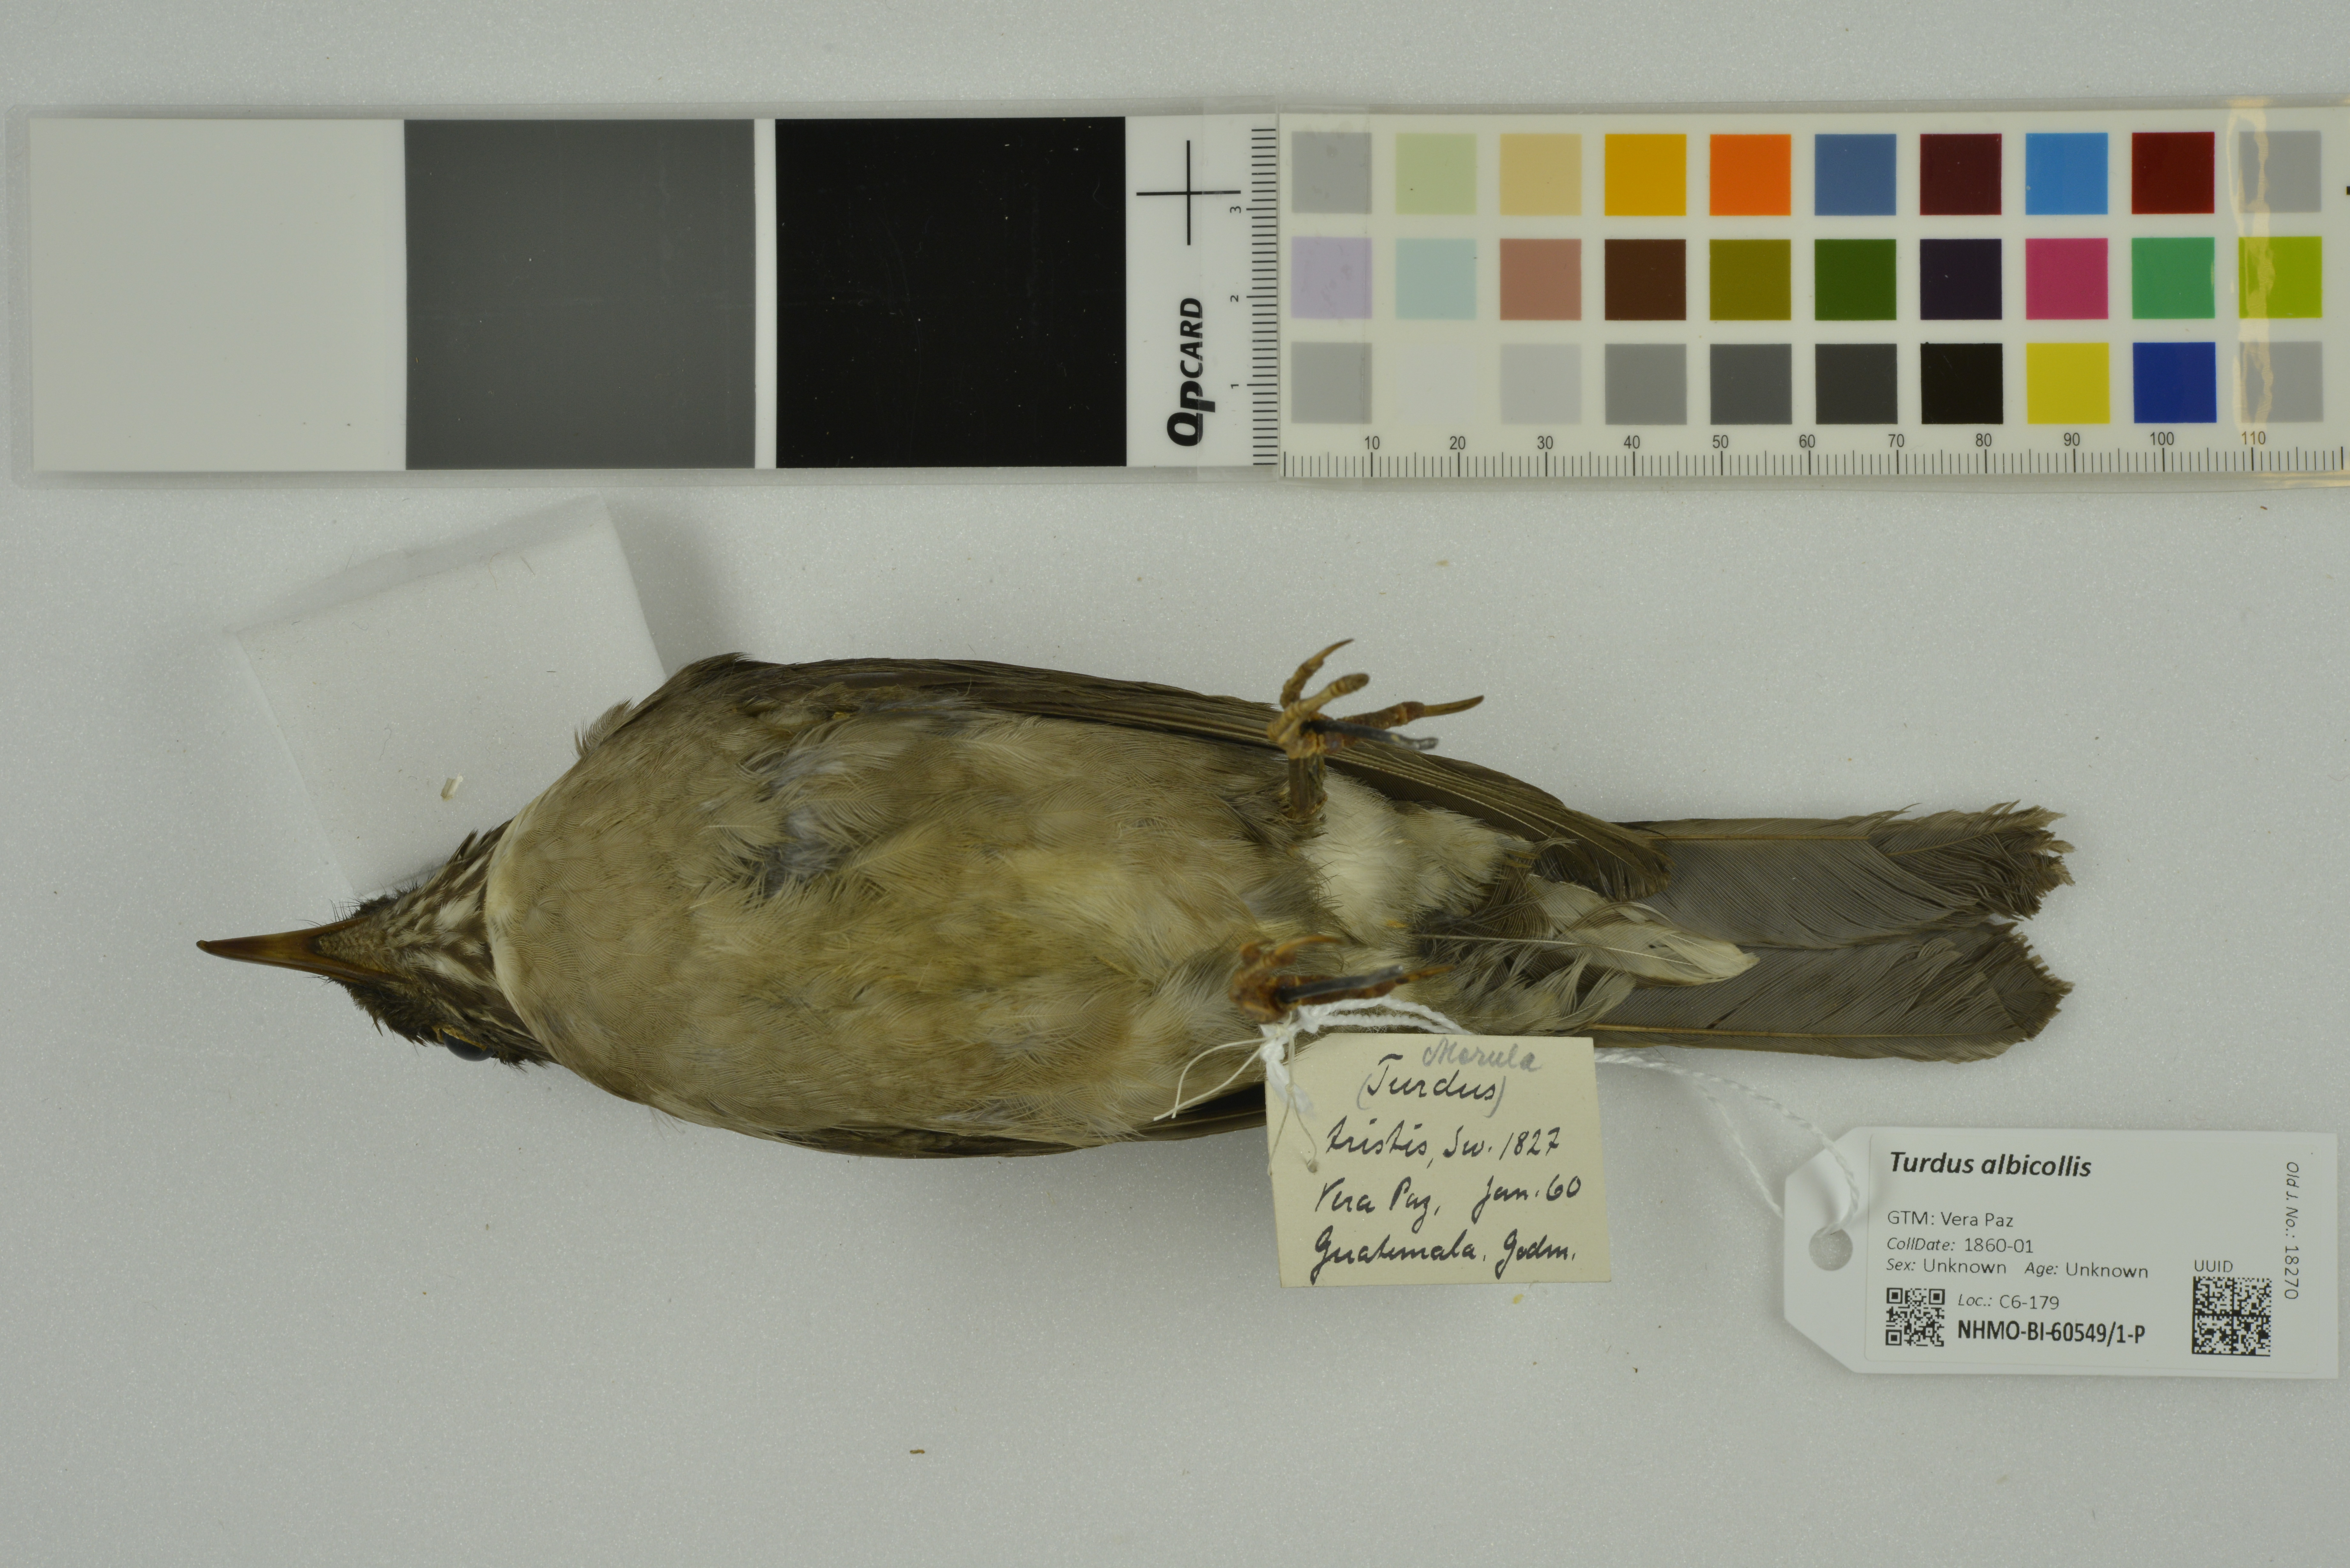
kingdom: Animalia
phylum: Chordata
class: Aves
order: Passeriformes
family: Turdidae
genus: Turdus
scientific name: Turdus albicollis
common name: White-necked thrush
